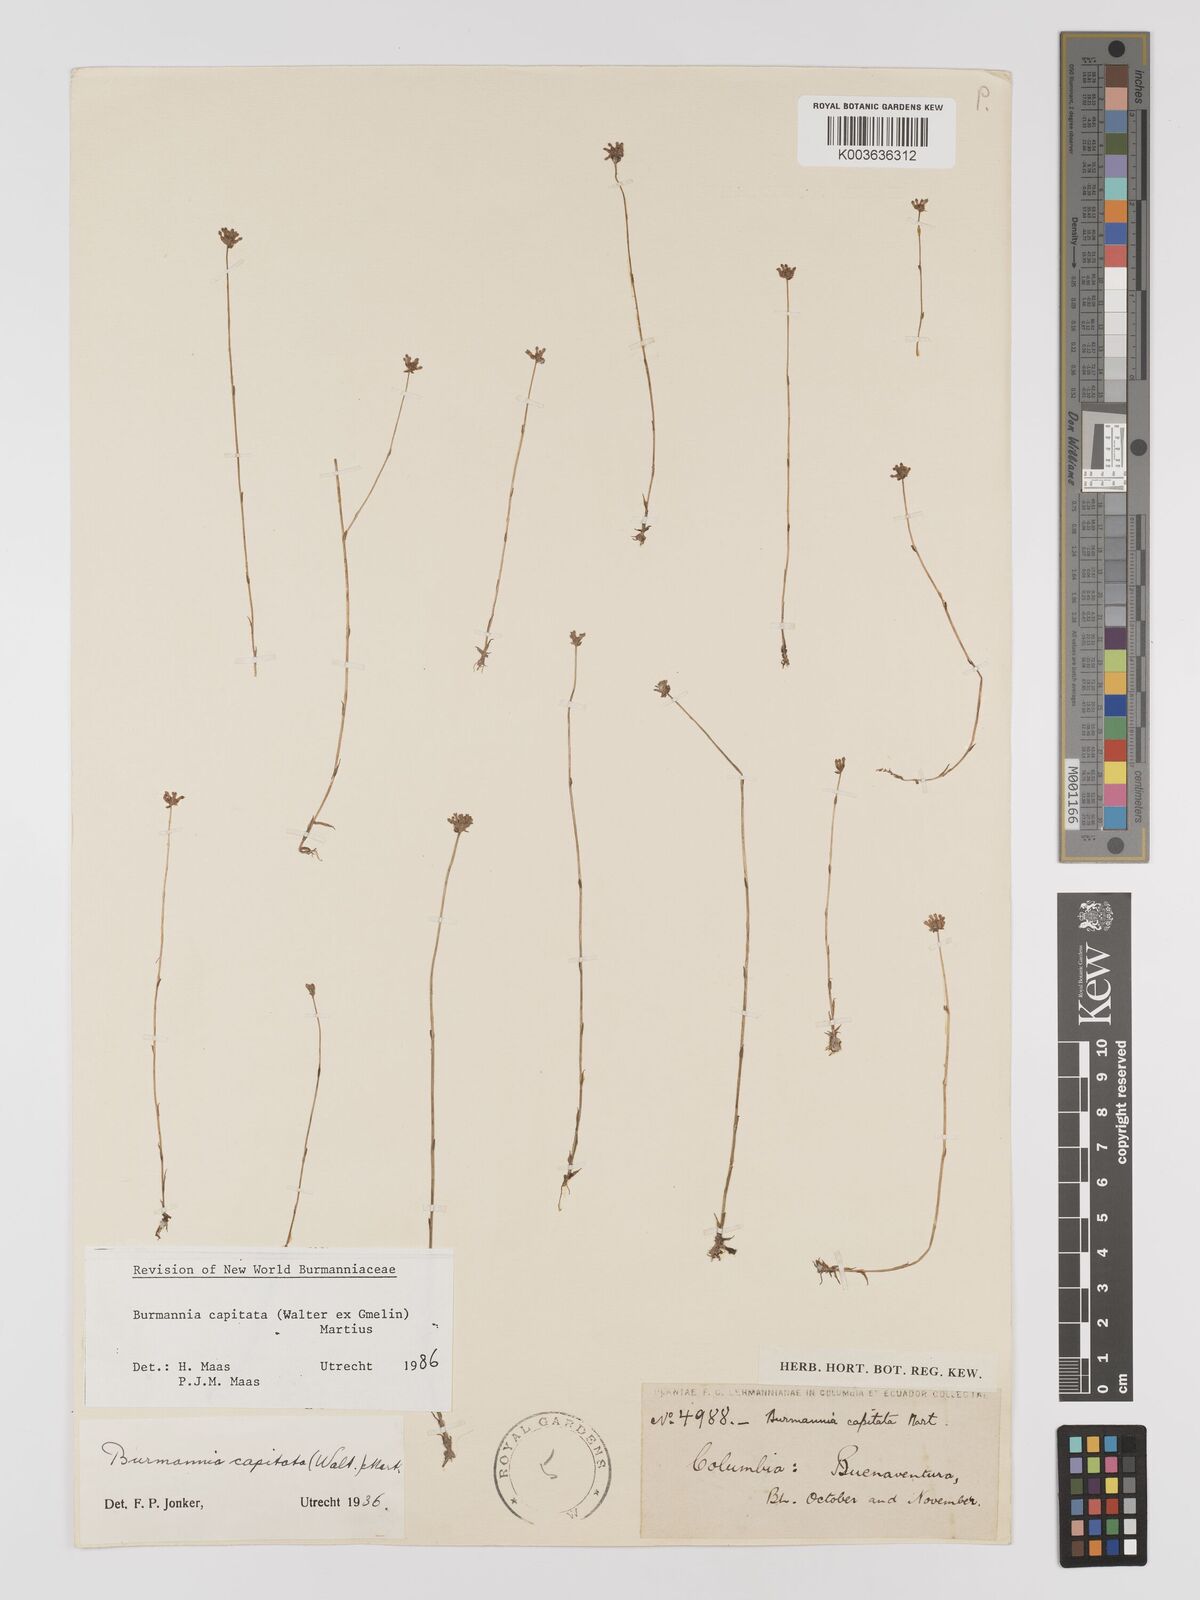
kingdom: Plantae
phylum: Tracheophyta
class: Liliopsida
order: Dioscoreales
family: Burmanniaceae
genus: Burmannia
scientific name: Burmannia capitata
